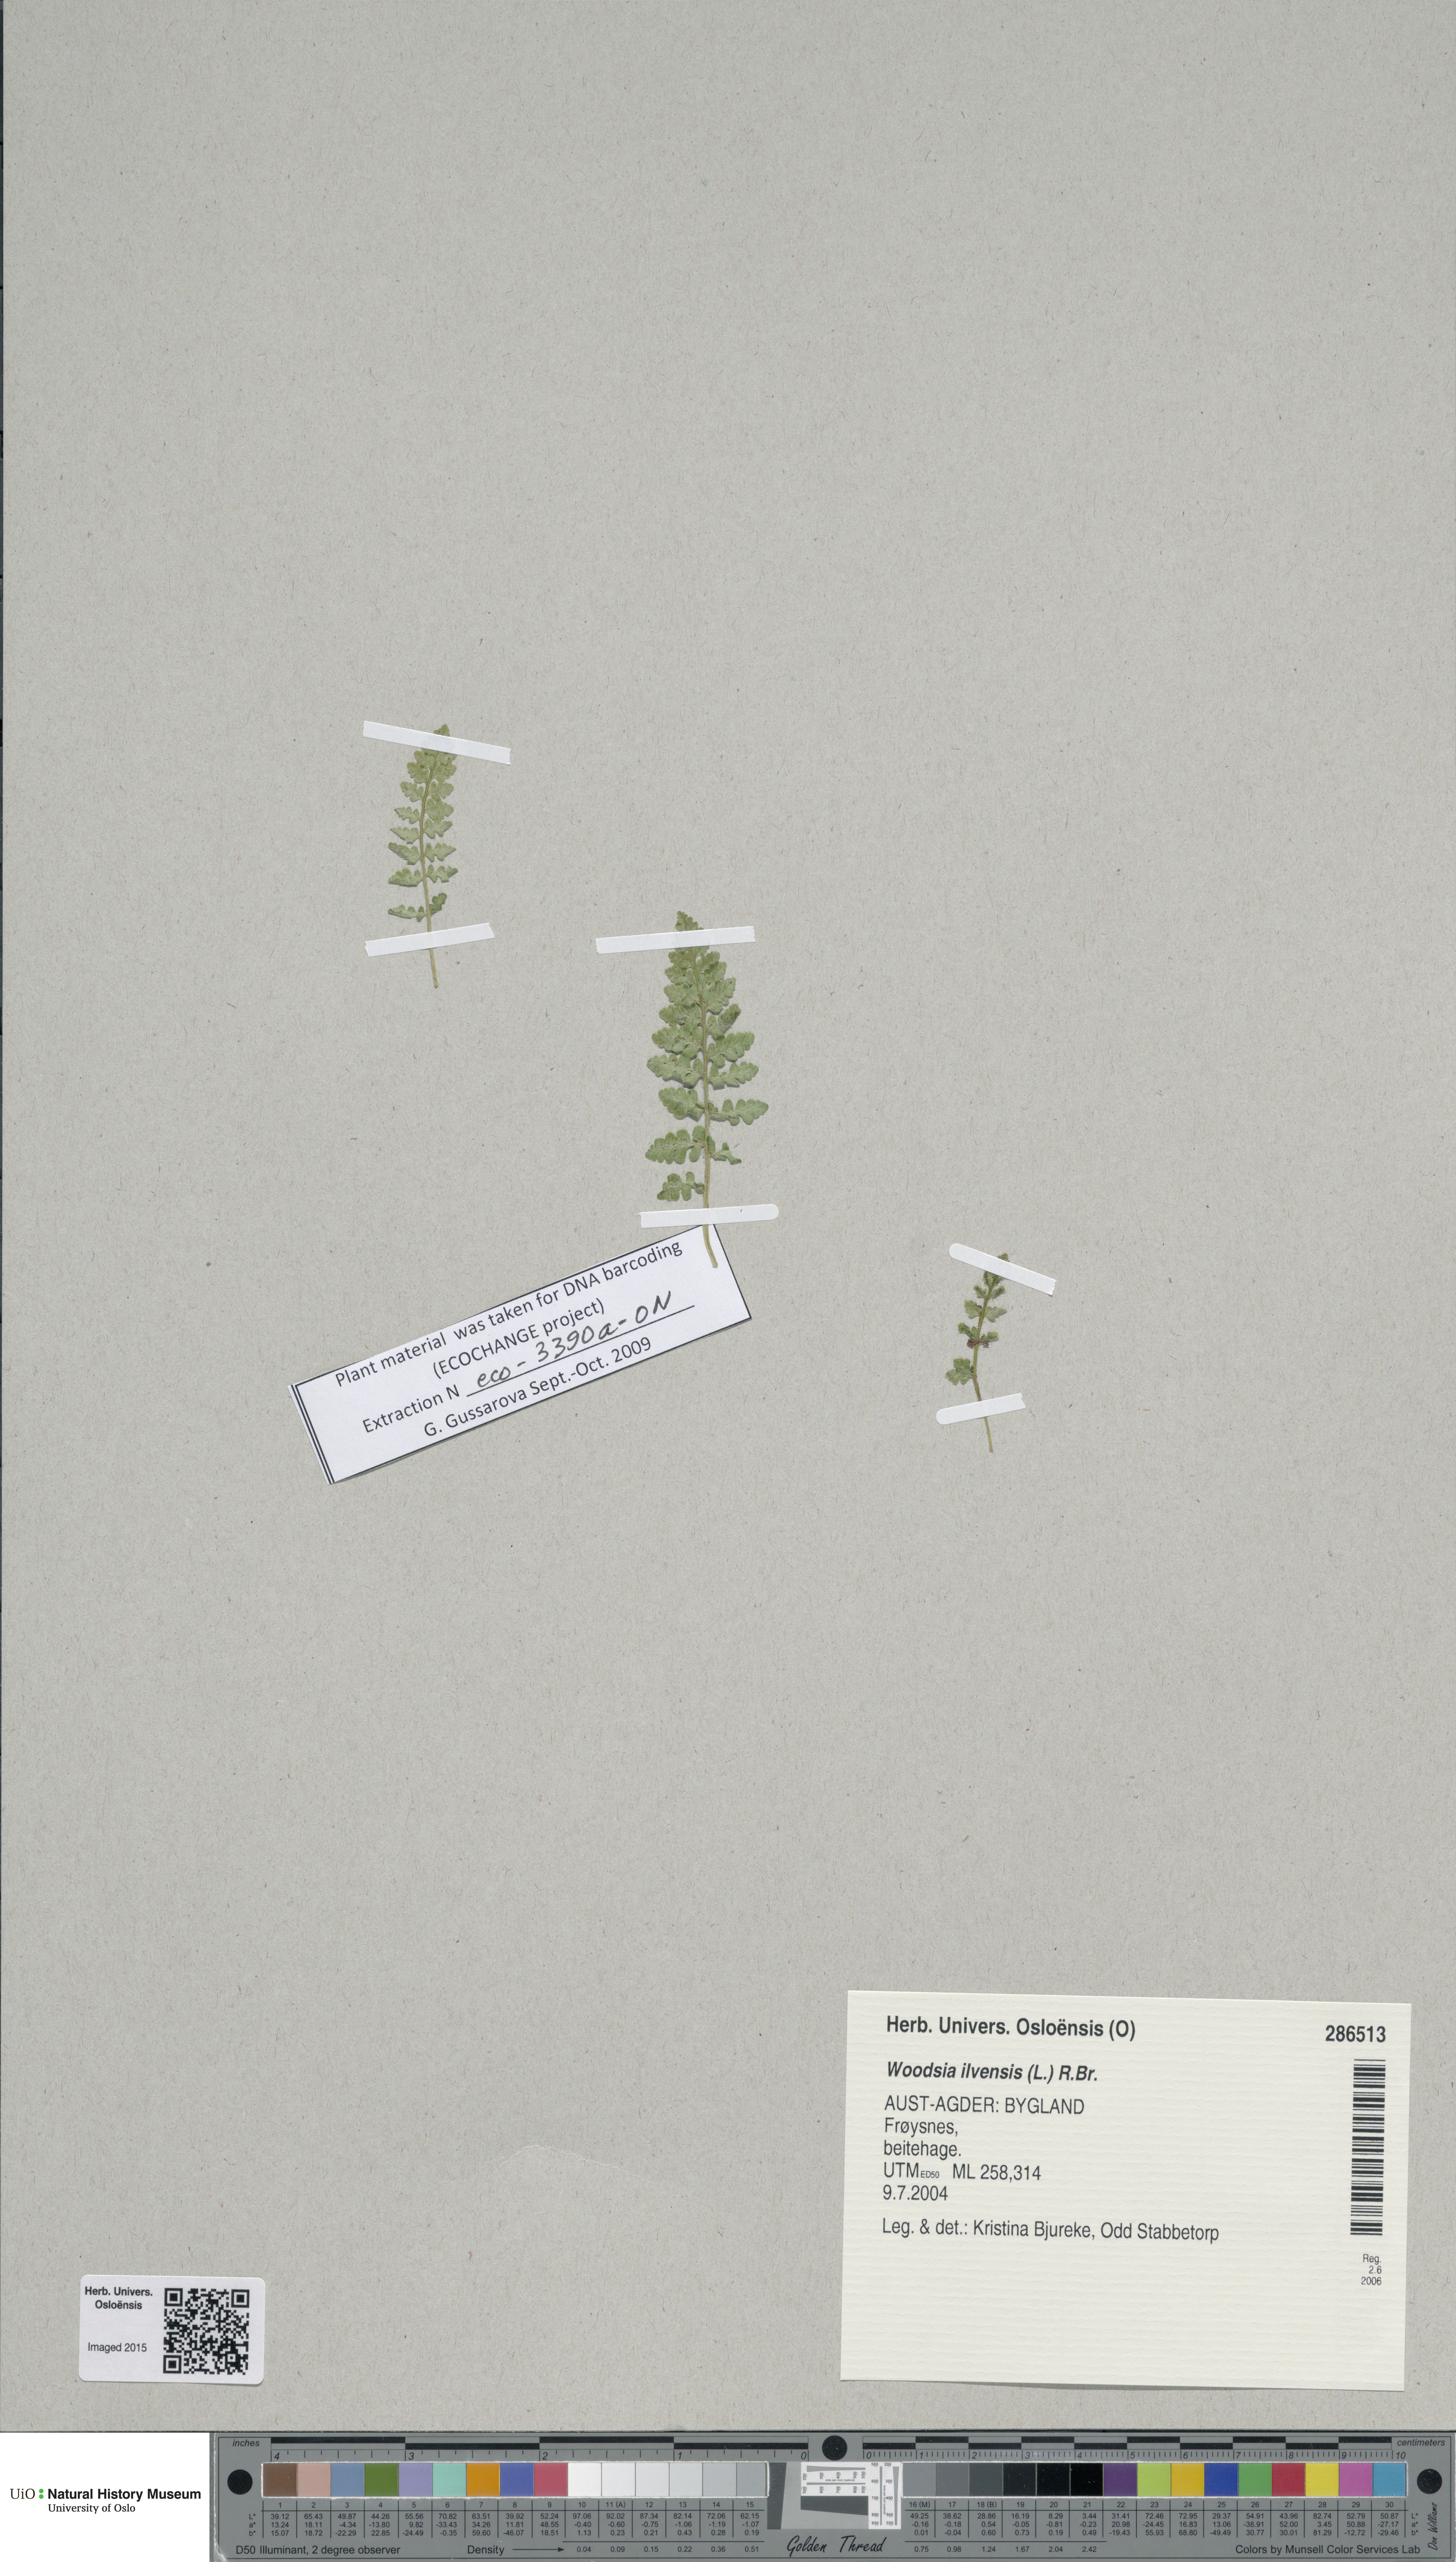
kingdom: Plantae
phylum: Tracheophyta
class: Polypodiopsida
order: Polypodiales
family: Woodsiaceae
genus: Woodsia
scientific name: Woodsia ilvensis
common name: Fragrant woodsia
